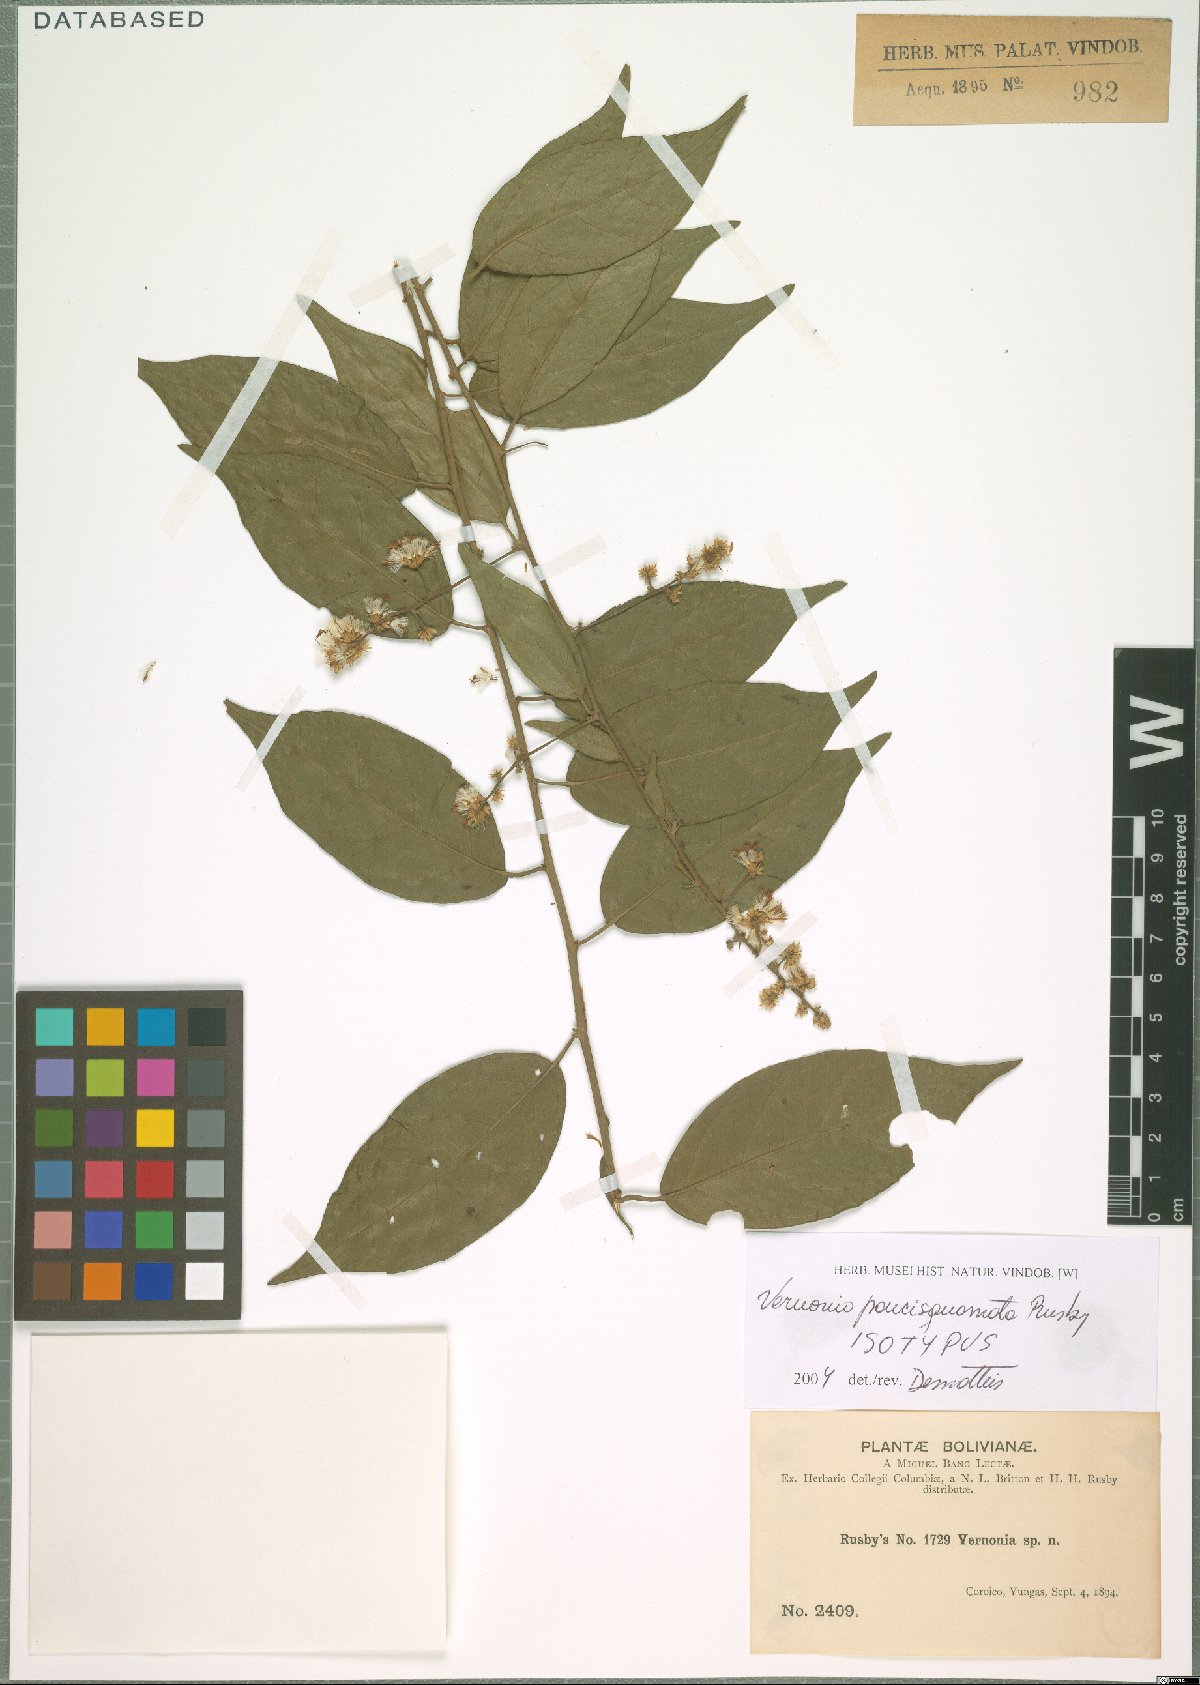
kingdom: Plantae
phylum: Tracheophyta
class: Magnoliopsida
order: Asterales
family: Asteraceae
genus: Critoniopsis
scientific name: Critoniopsis boliviana
